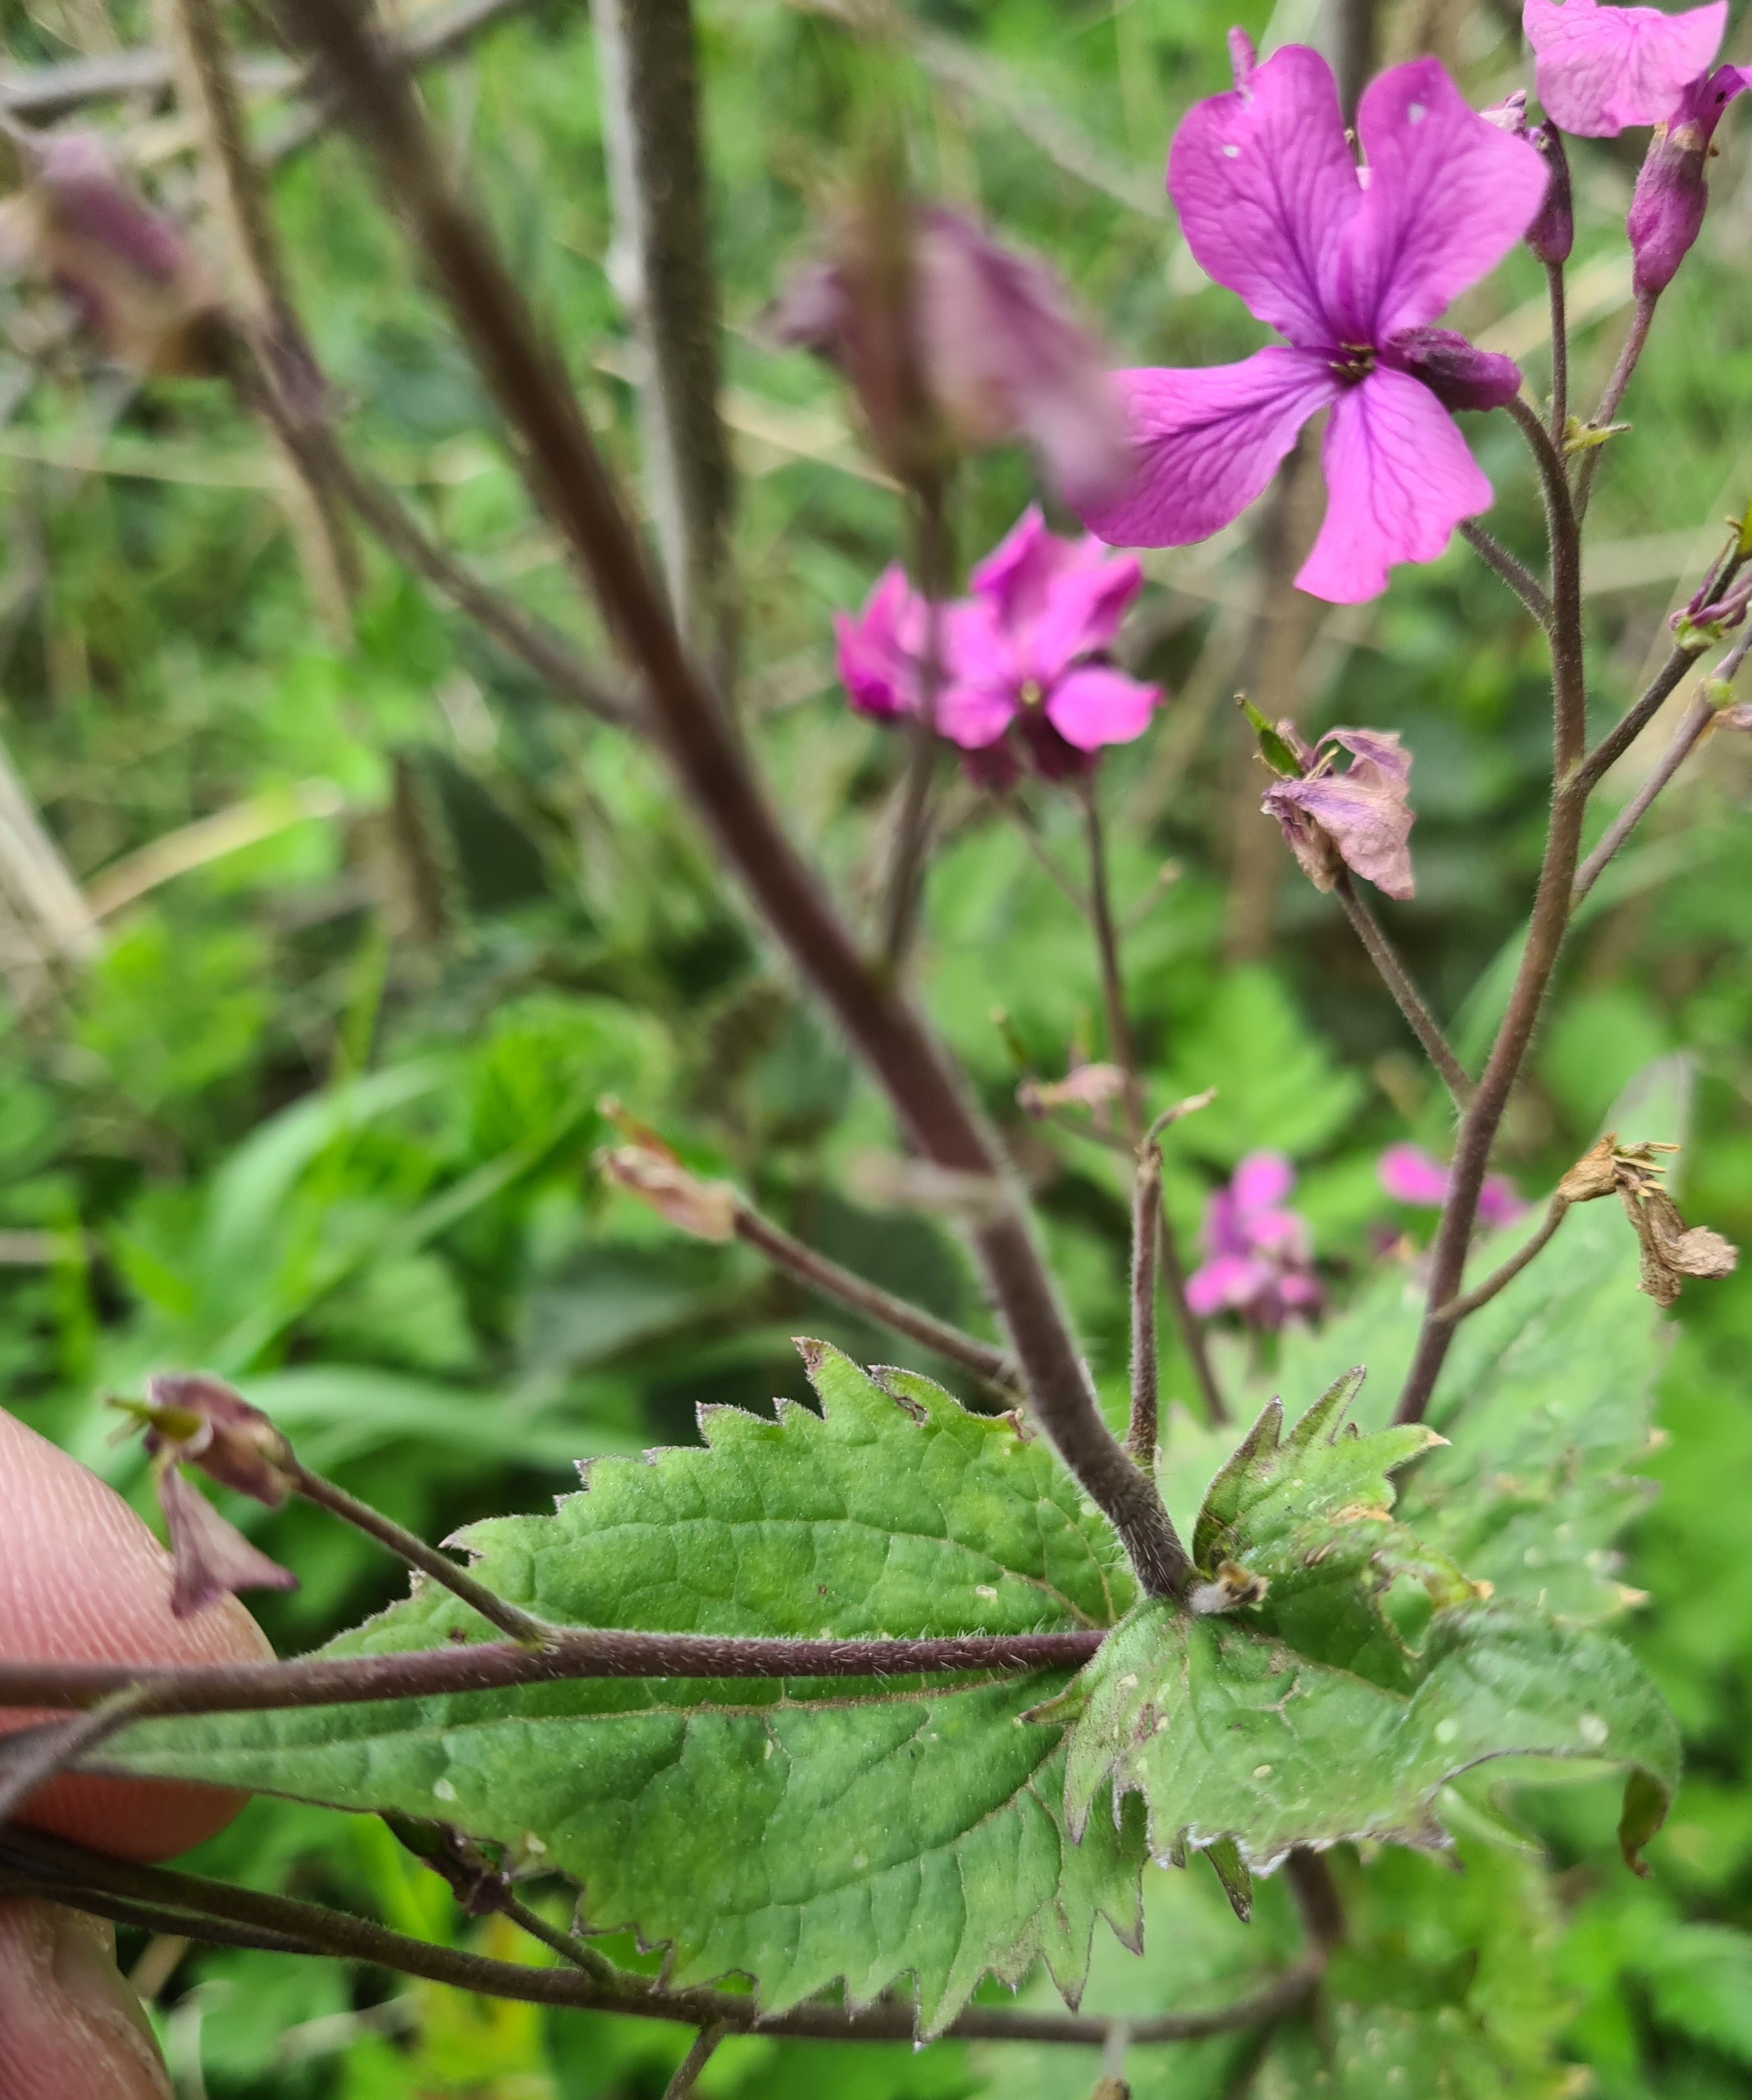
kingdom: Plantae
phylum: Tracheophyta
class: Magnoliopsida
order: Brassicales
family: Brassicaceae
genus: Lunaria
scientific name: Lunaria annua
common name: Judaspenge
